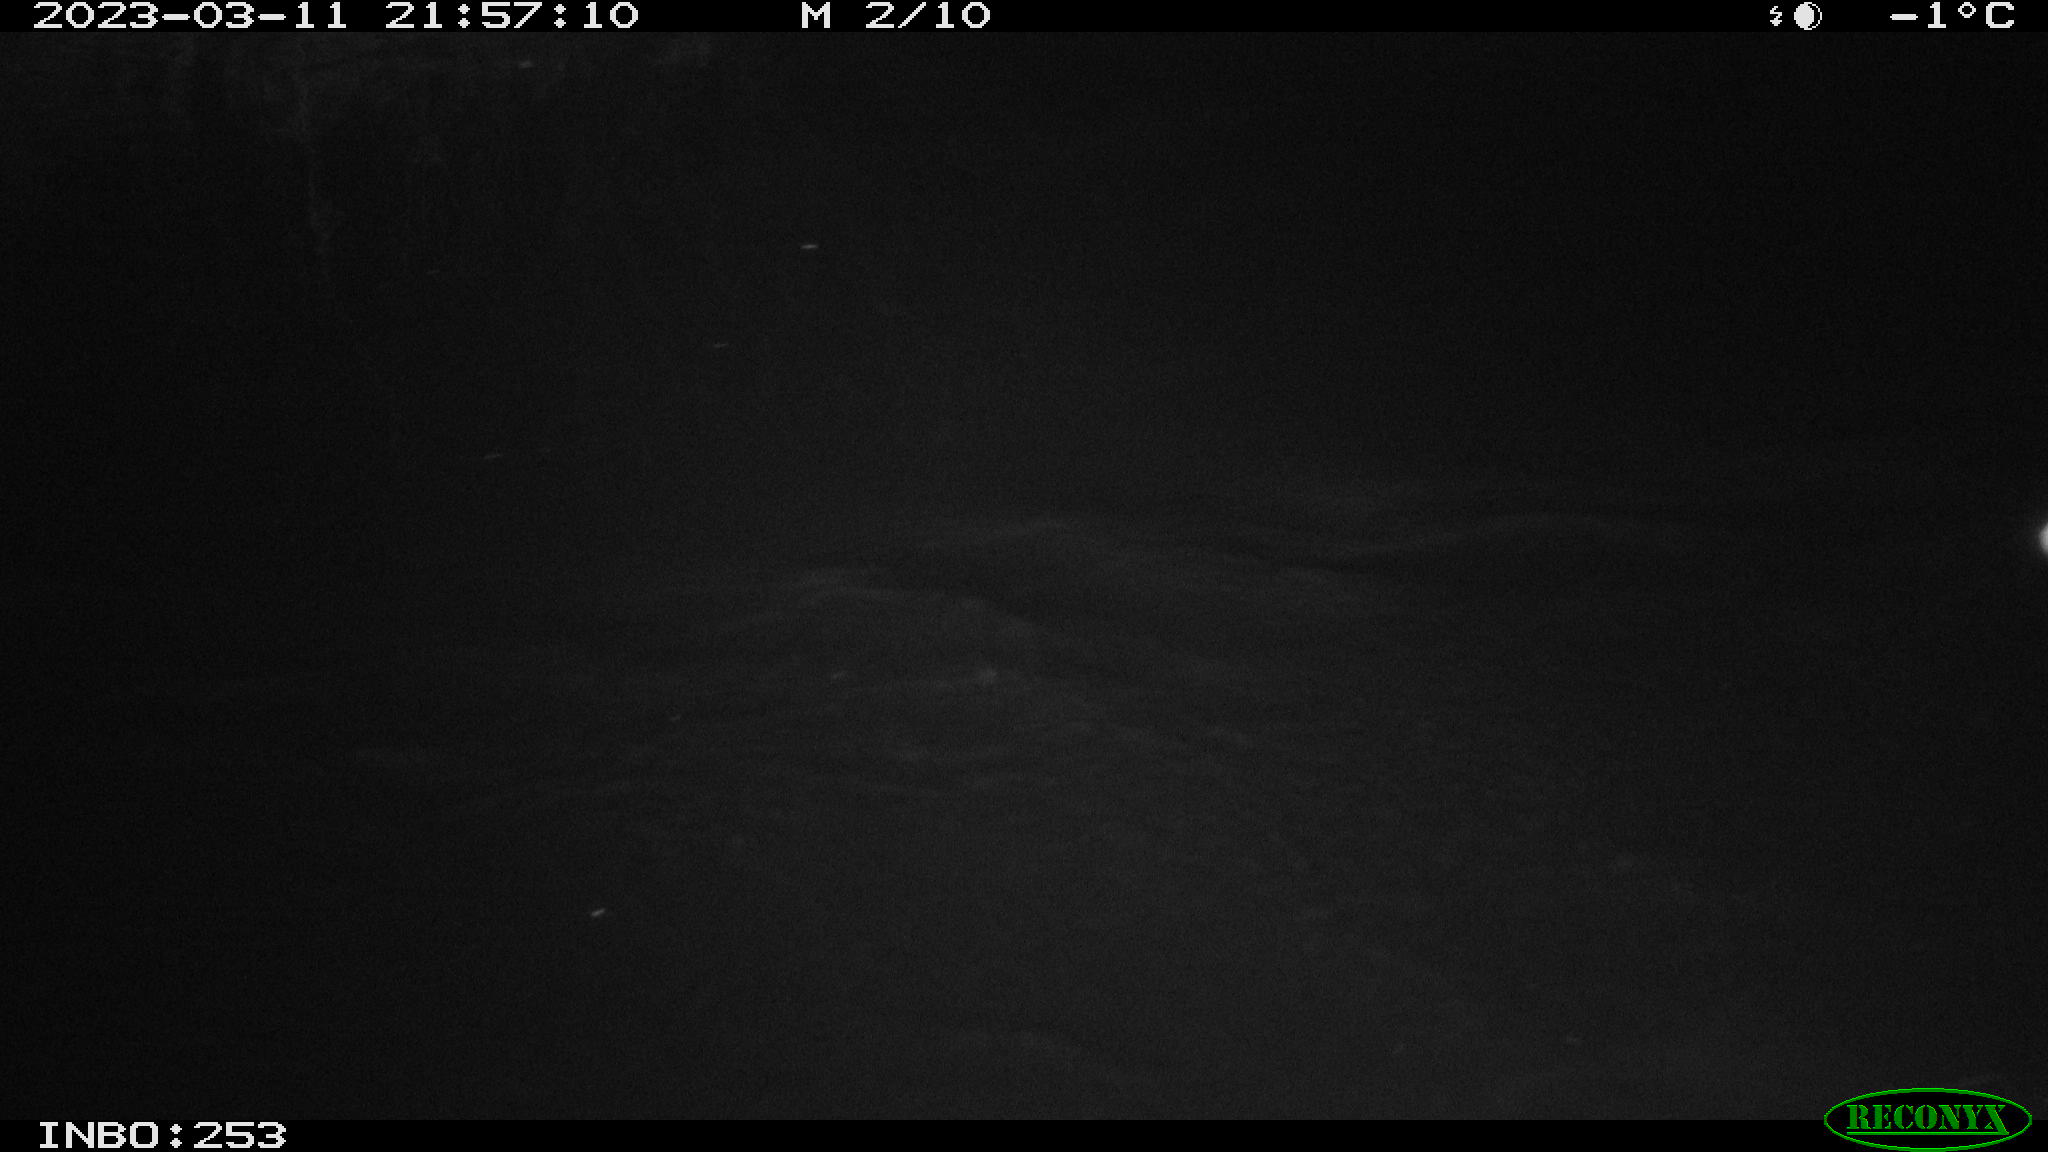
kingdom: Animalia
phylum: Chordata
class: Aves
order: Anseriformes
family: Anatidae
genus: Anas
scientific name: Anas
